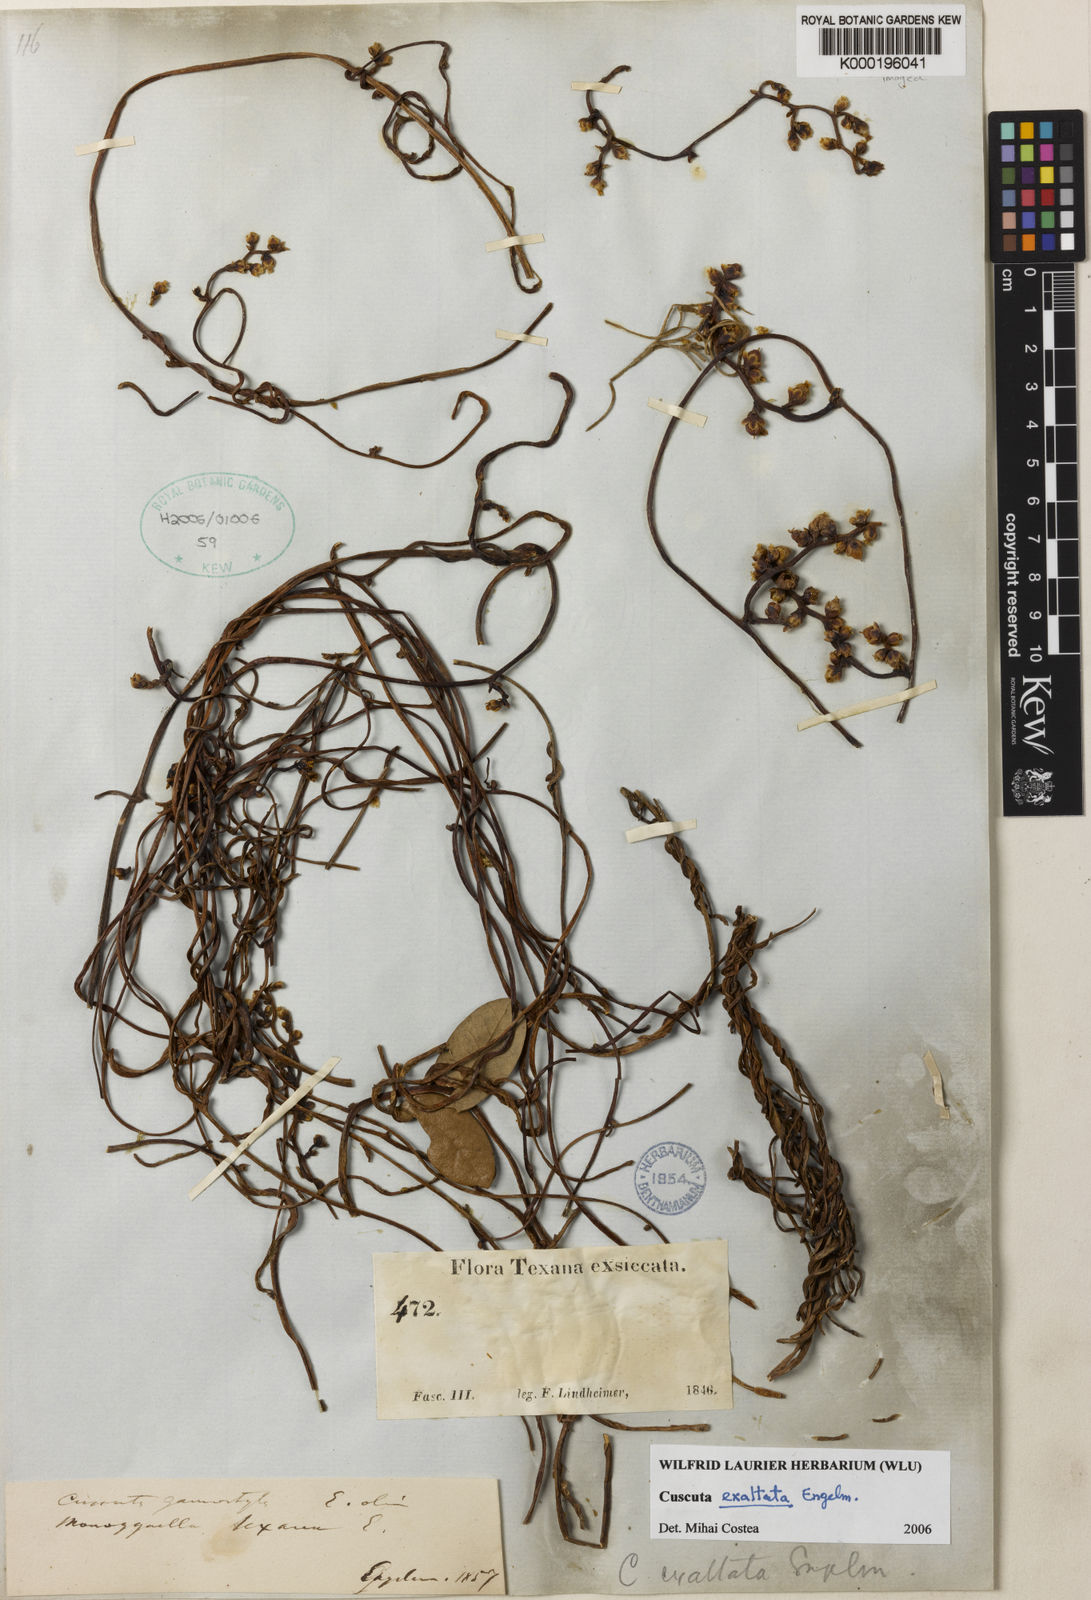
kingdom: Plantae
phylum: Tracheophyta
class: Magnoliopsida
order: Solanales
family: Convolvulaceae
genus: Cuscuta
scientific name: Cuscuta exaltata
